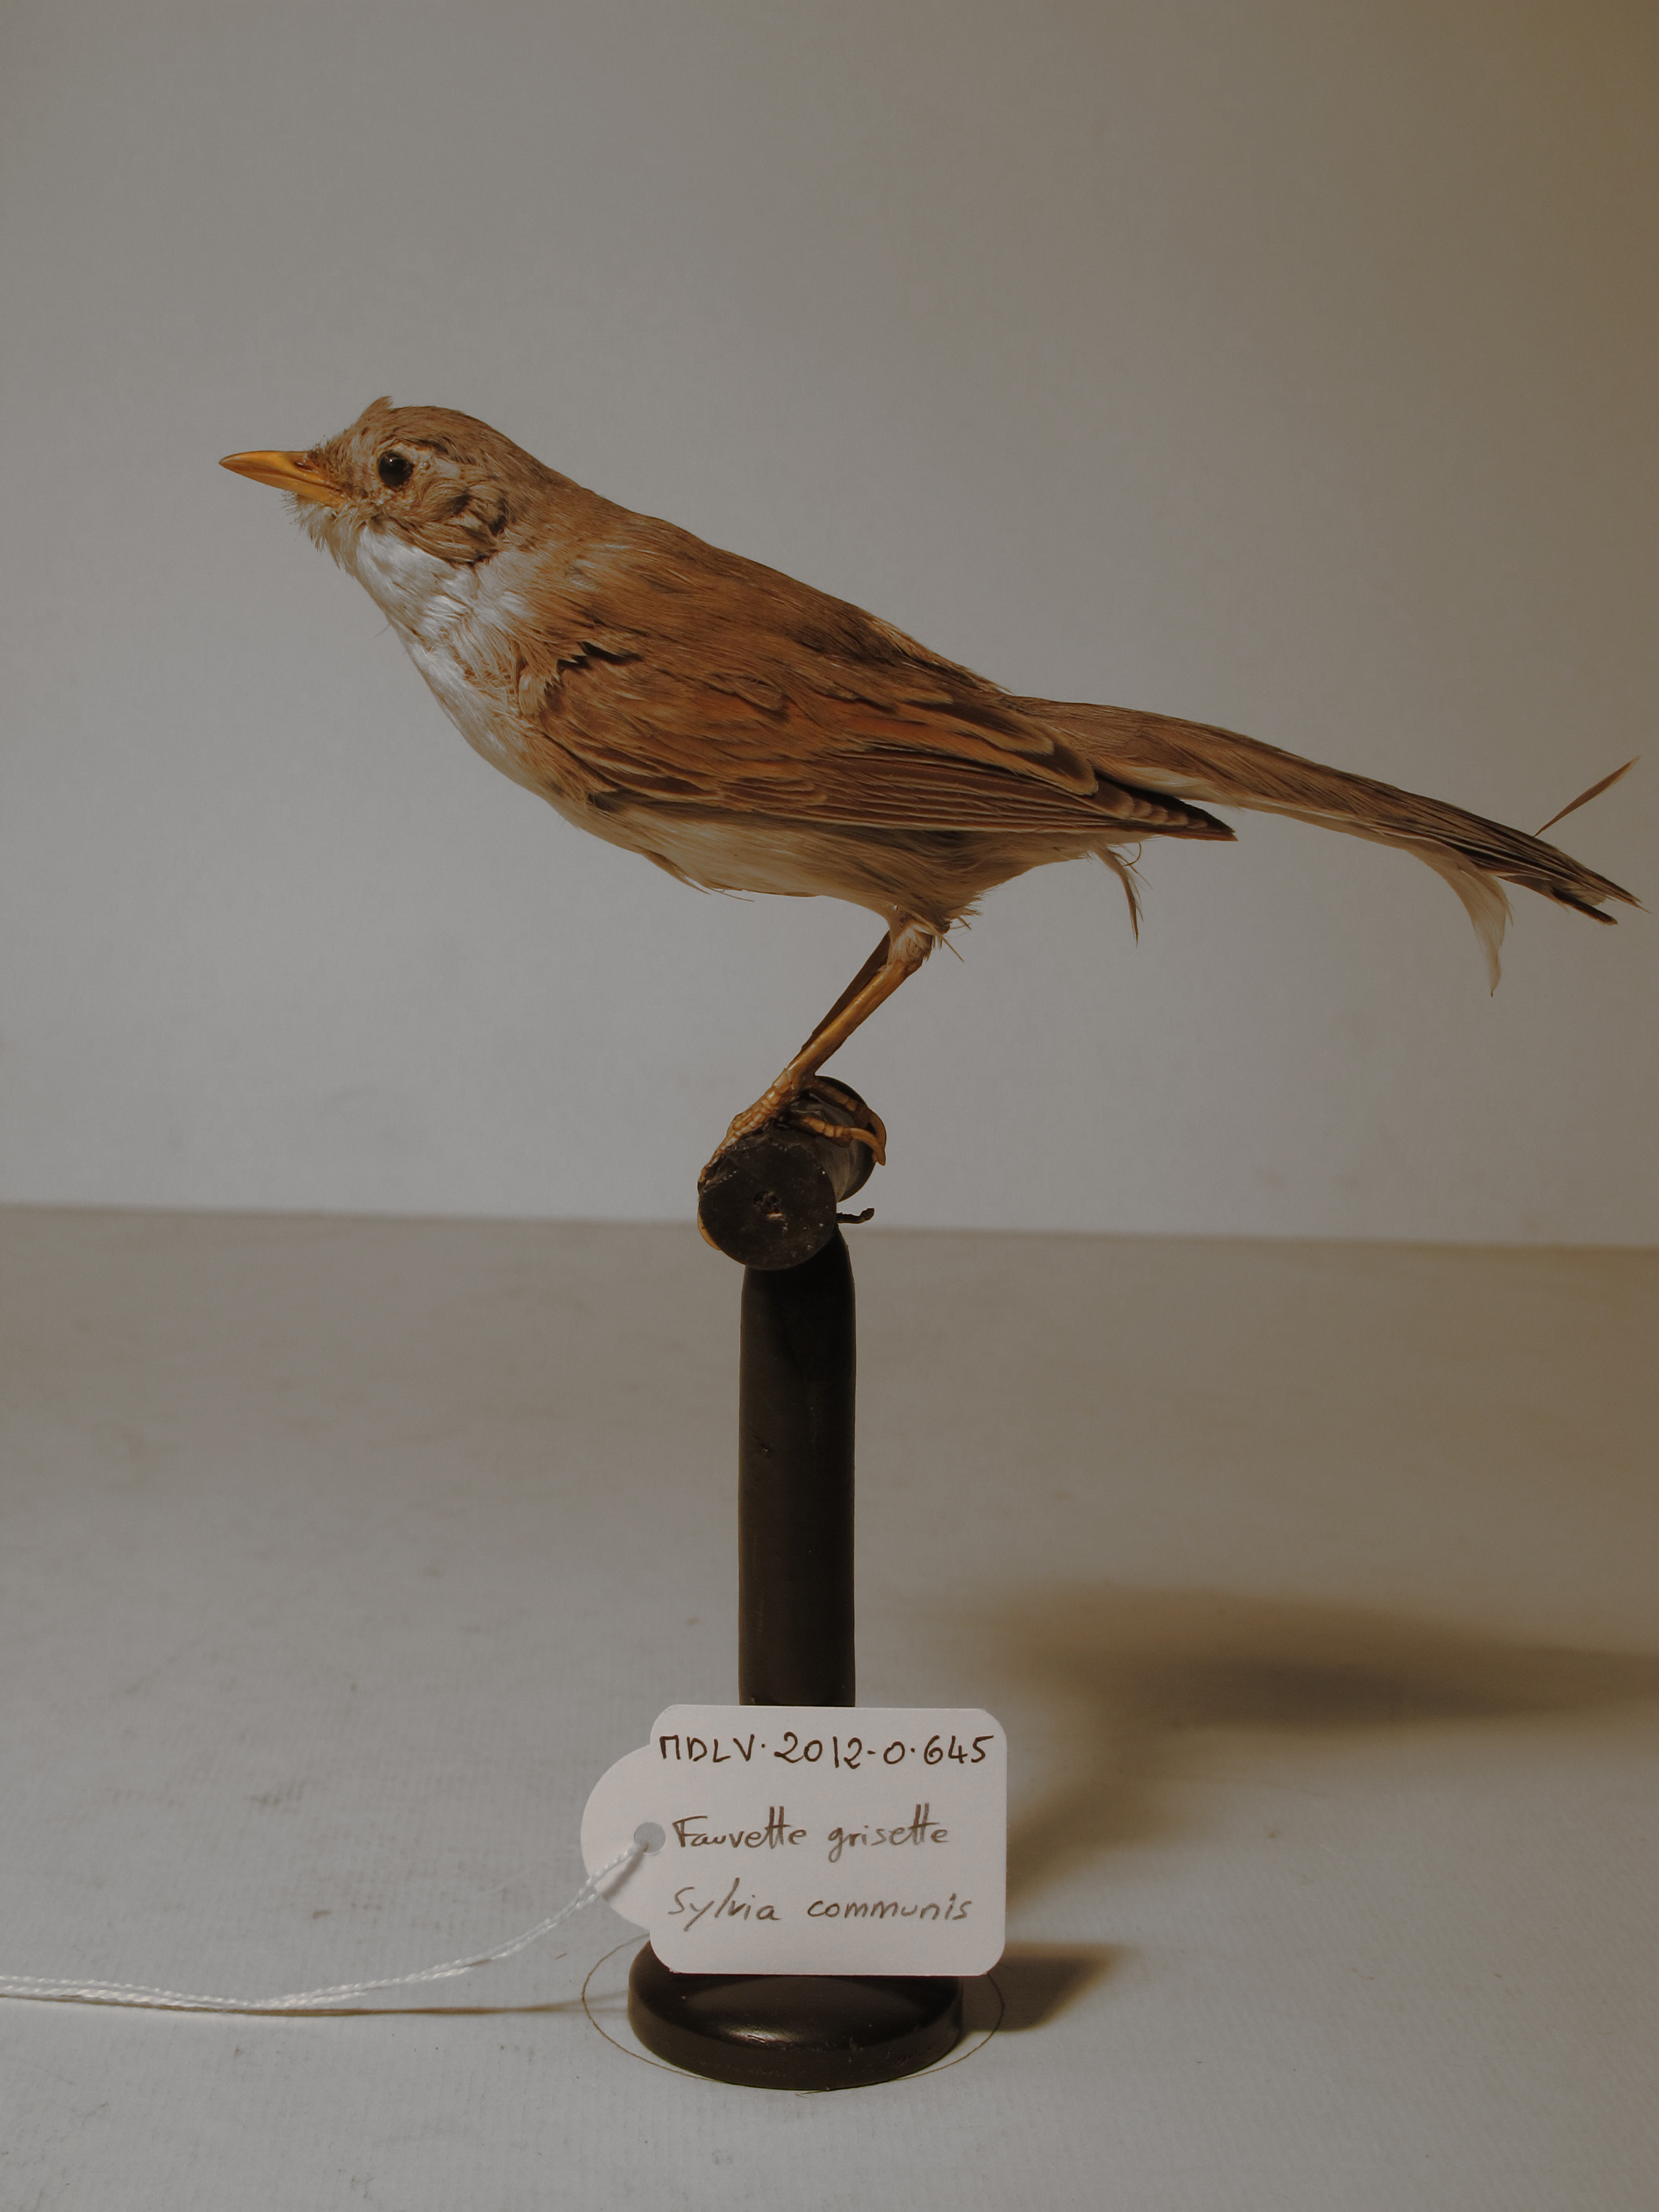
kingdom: Animalia
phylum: Chordata
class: Aves
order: Passeriformes
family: Sylviidae
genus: Sylvia
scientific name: Sylvia communis
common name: Common Whitethroat
